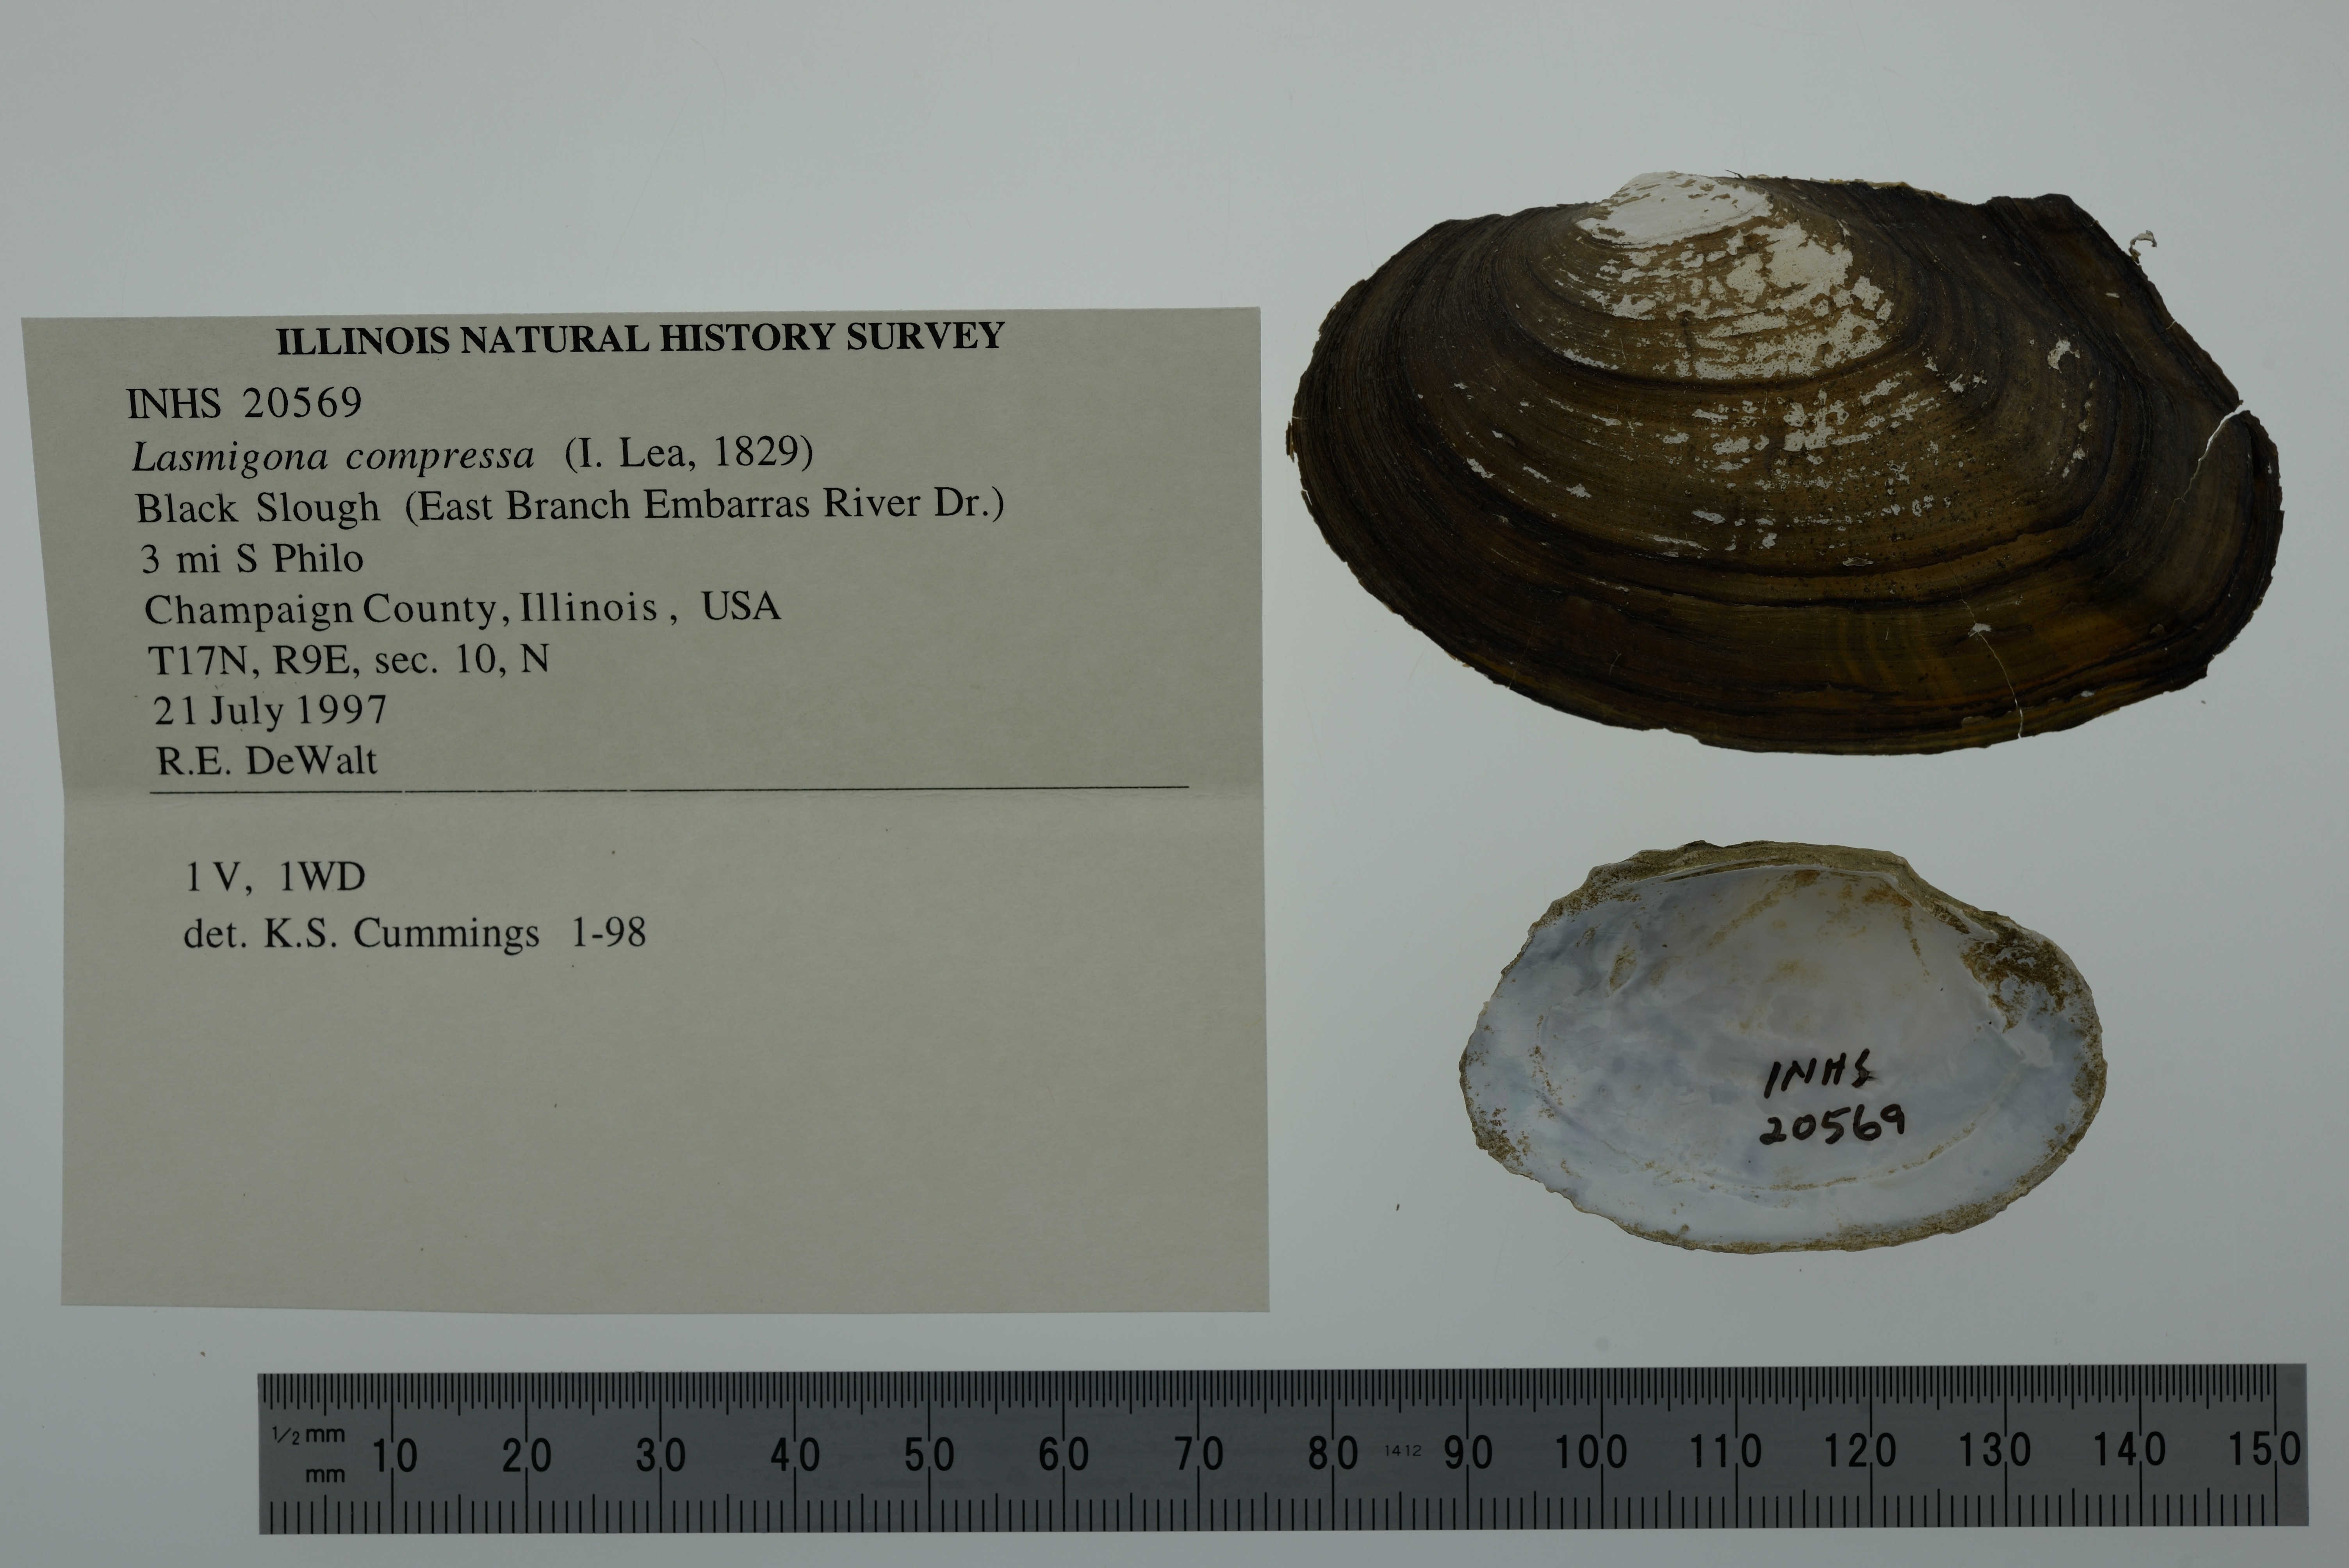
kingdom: Animalia
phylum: Mollusca
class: Bivalvia
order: Unionida
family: Unionidae
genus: Lasmigona
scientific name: Lasmigona compressa
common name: Creek heelsplitter
